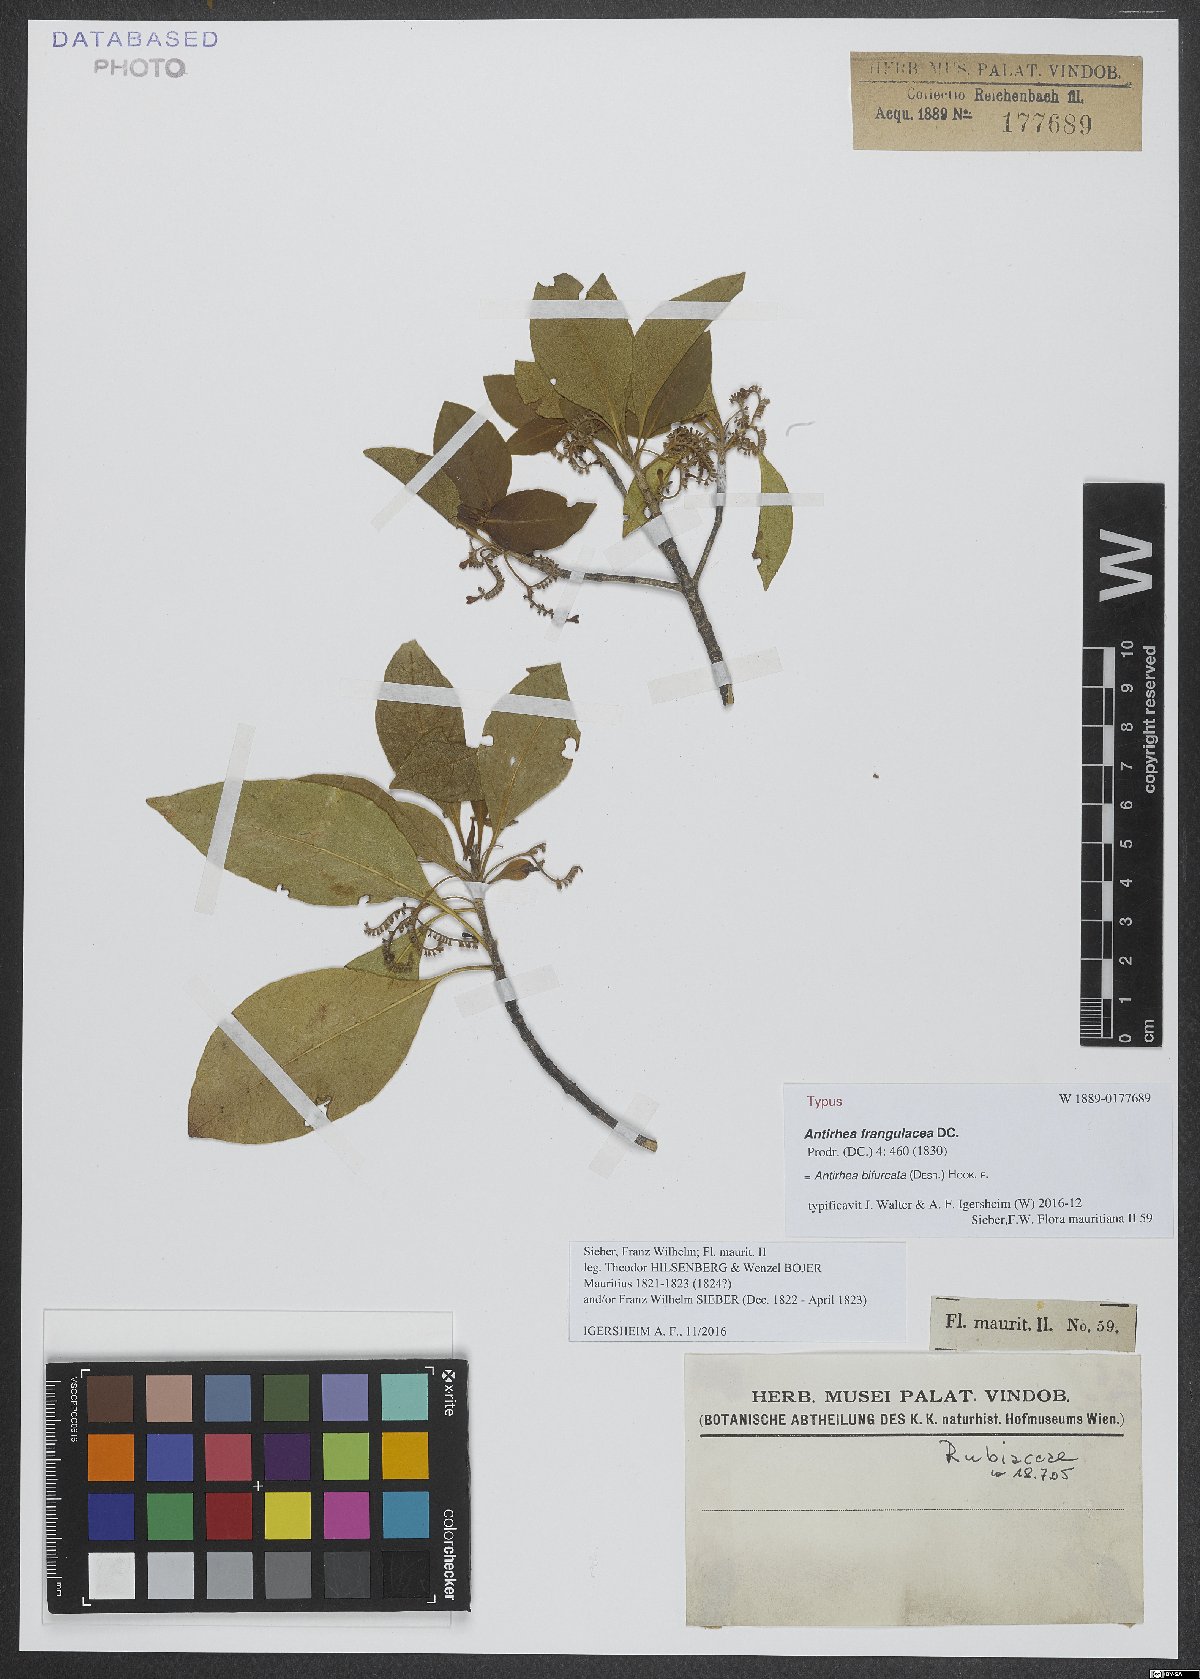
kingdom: Plantae
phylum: Tracheophyta
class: Magnoliopsida
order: Gentianales
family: Rubiaceae
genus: Antirhea
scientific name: Antirhea bifurcata
